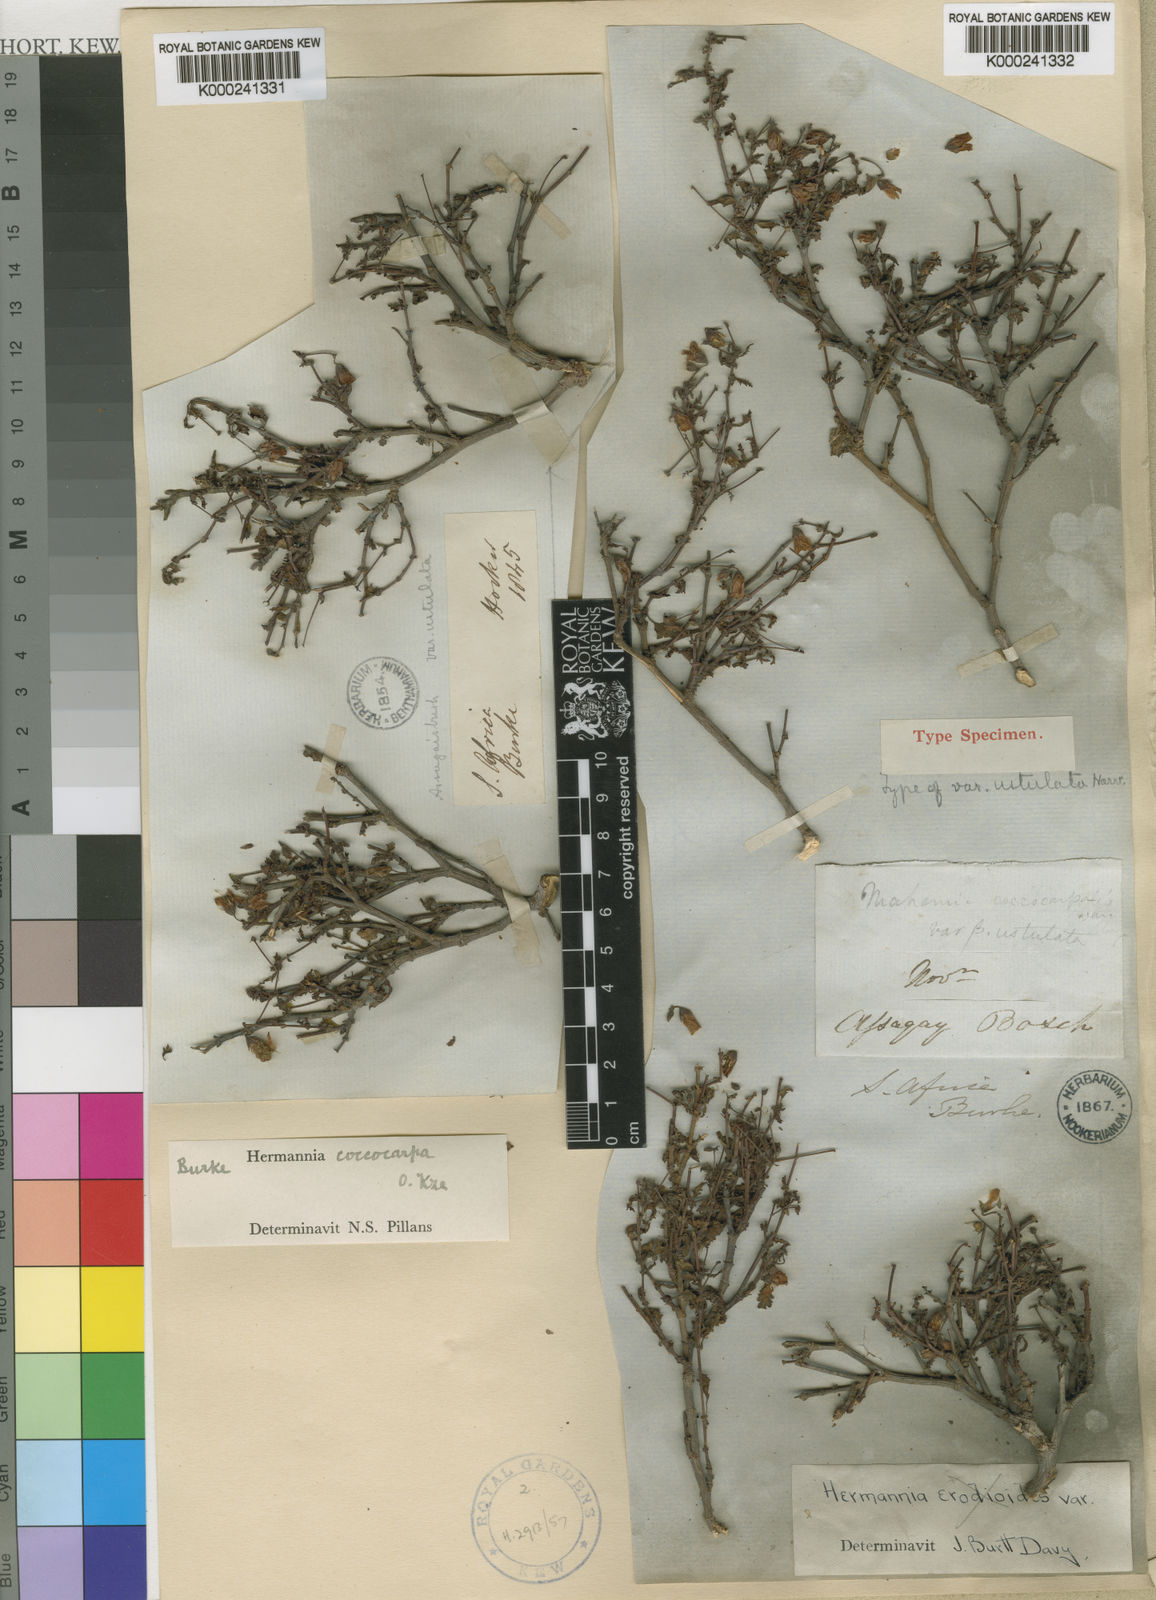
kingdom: Plantae
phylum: Tracheophyta
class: Magnoliopsida
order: Malvales
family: Malvaceae
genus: Hermannia
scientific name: Hermannia coccocarpa
